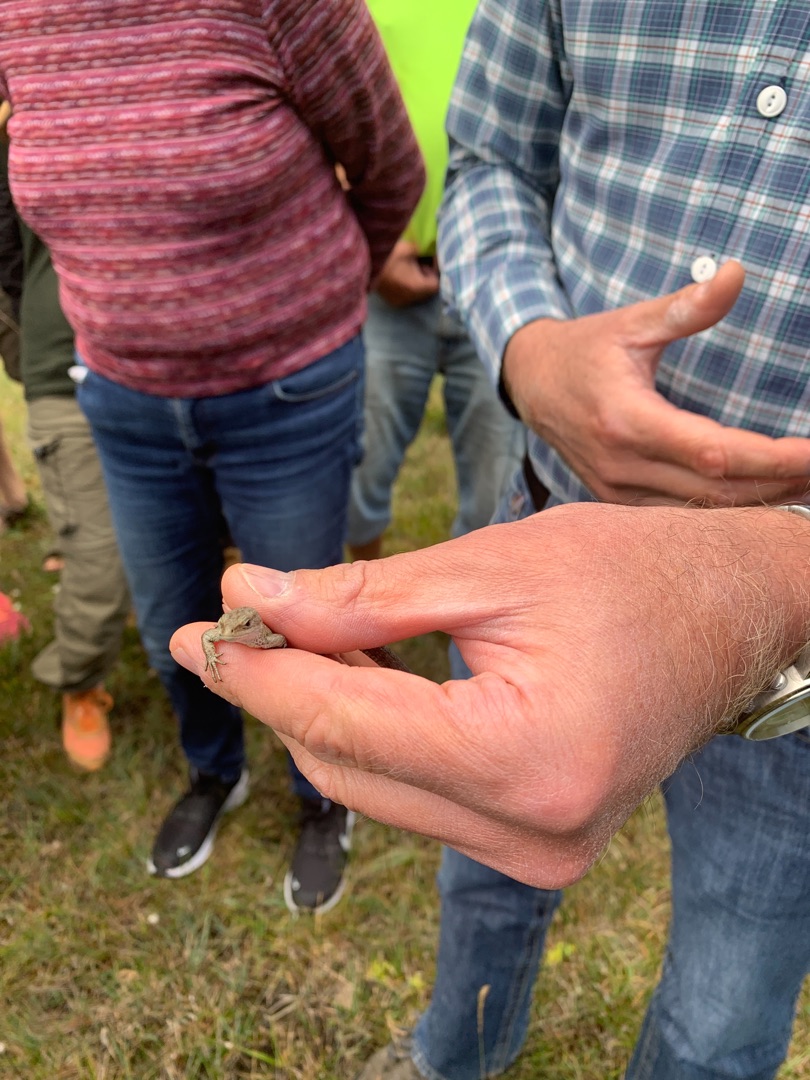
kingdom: Animalia
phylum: Chordata
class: Squamata
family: Lacertidae
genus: Zootoca
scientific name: Zootoca vivipara
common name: Skovfirben
